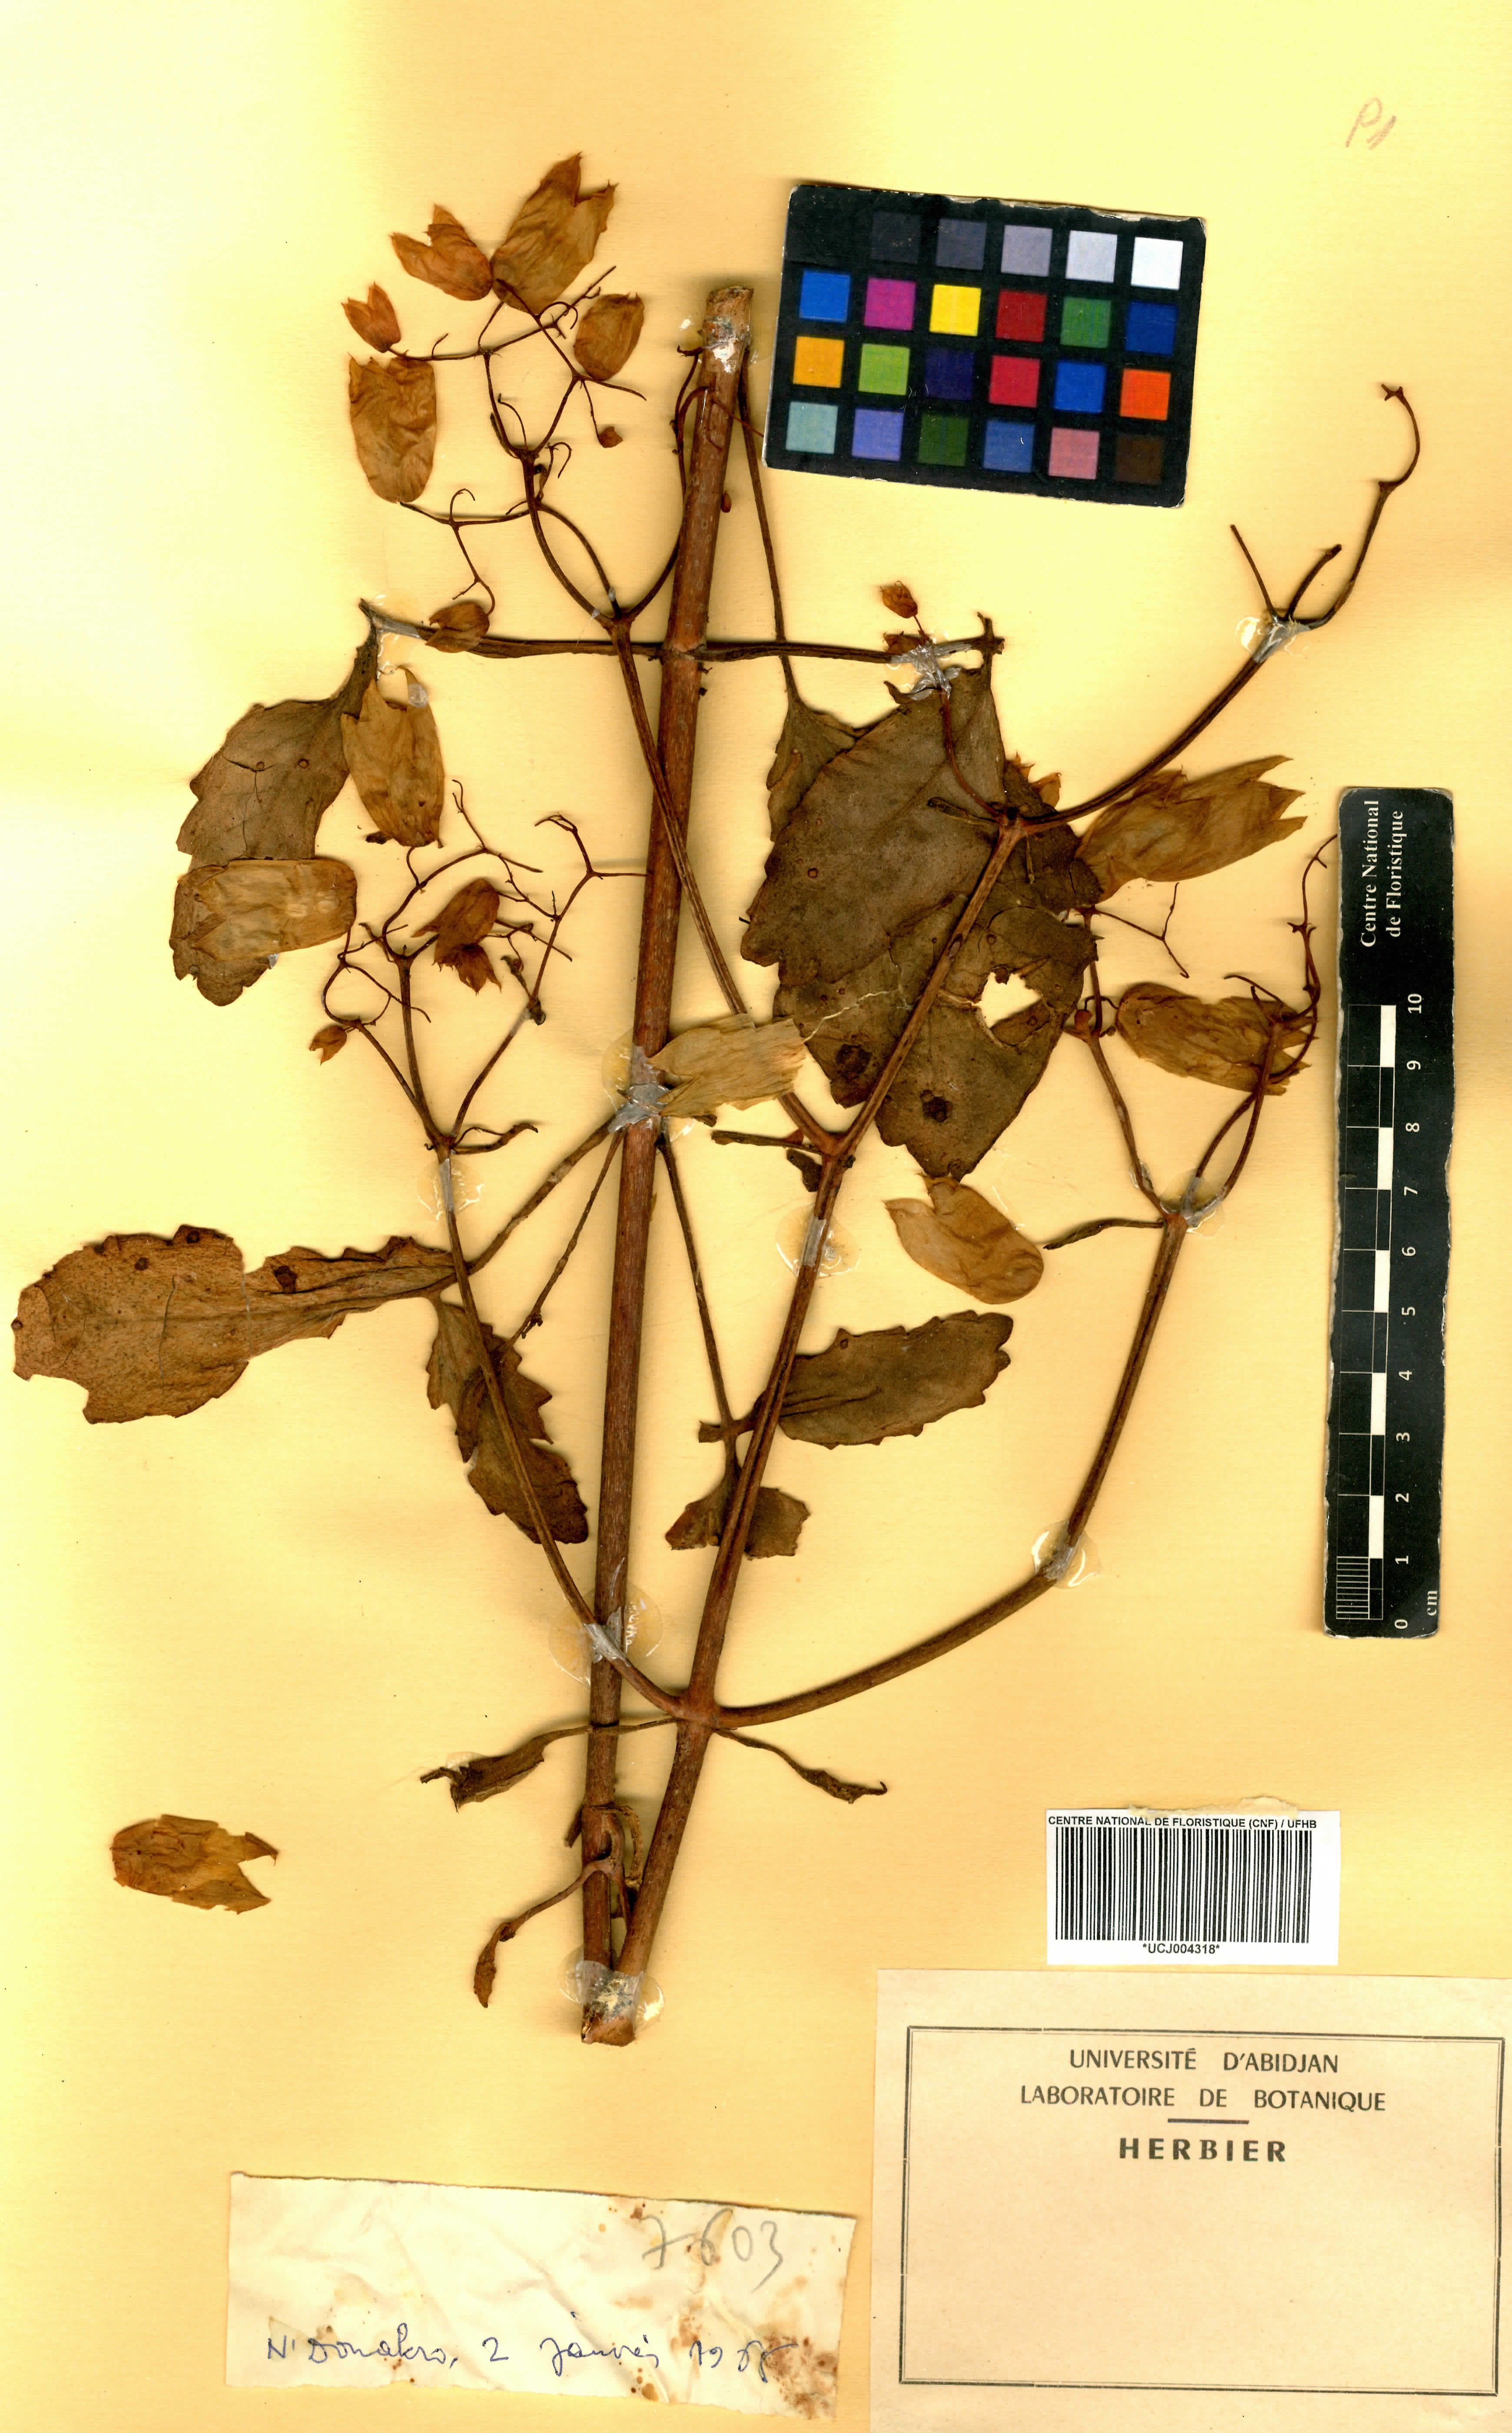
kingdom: Chromista
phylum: Ciliophora
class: Gymnostomatea
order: Spathidiida
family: Spathidiidae
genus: Bryophyllum
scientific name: Bryophyllum
